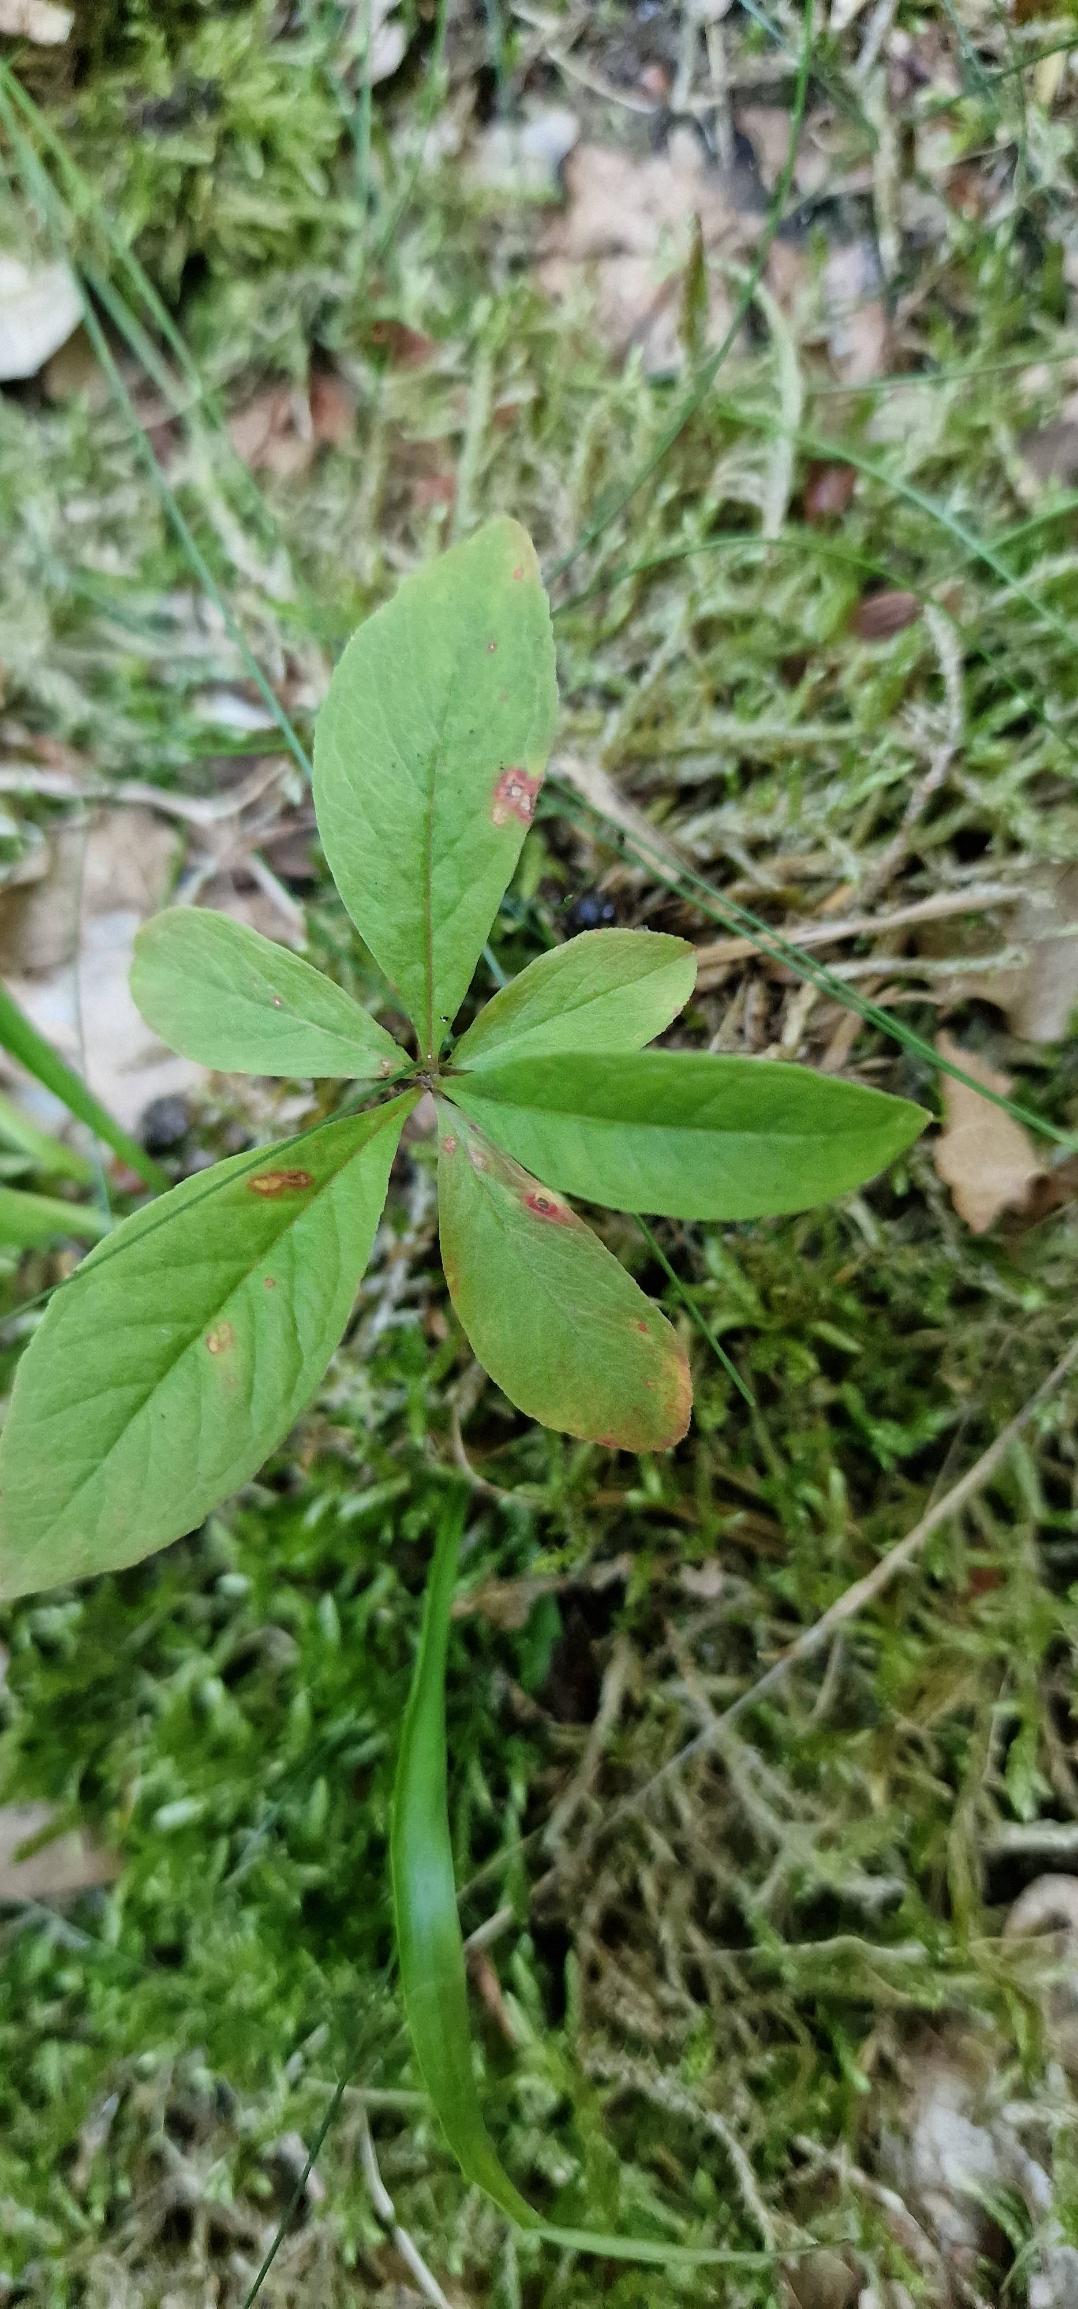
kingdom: Plantae
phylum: Tracheophyta
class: Magnoliopsida
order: Ericales
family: Primulaceae
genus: Lysimachia
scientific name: Lysimachia europaea
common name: Skovstjerne
